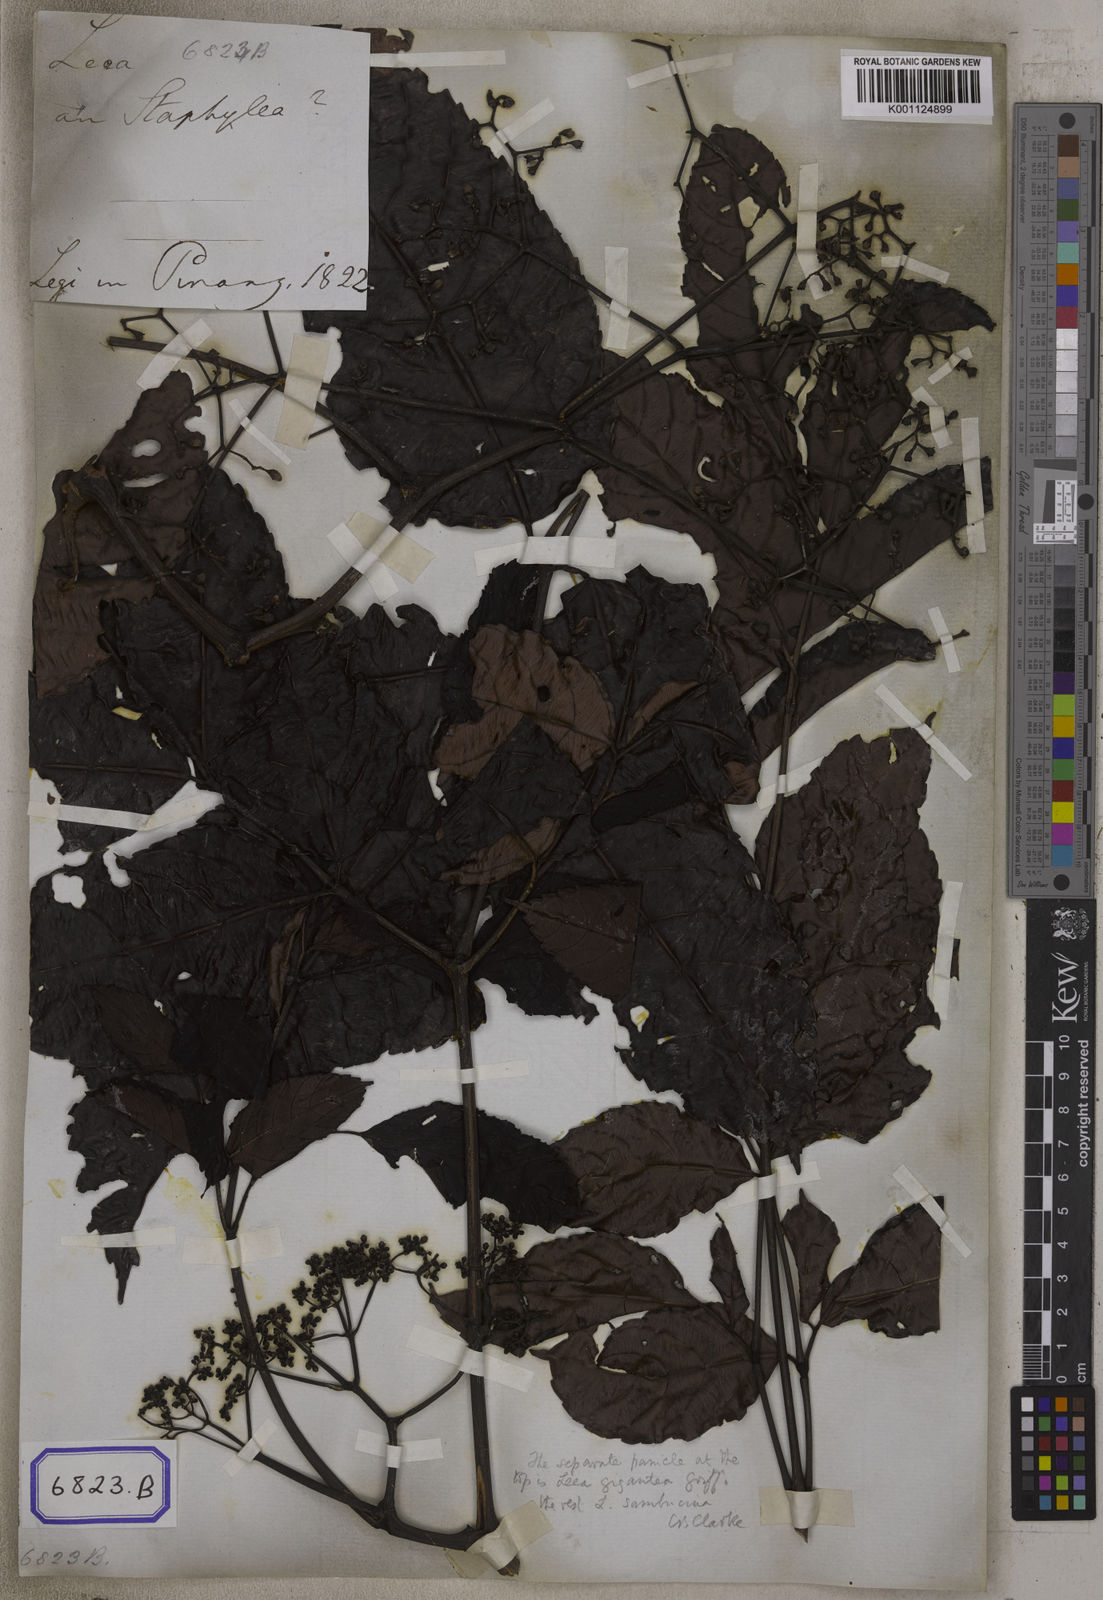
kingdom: Plantae
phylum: Tracheophyta
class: Magnoliopsida
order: Vitales
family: Vitaceae
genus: Leea
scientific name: Leea indica
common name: Bandicoot-berry
